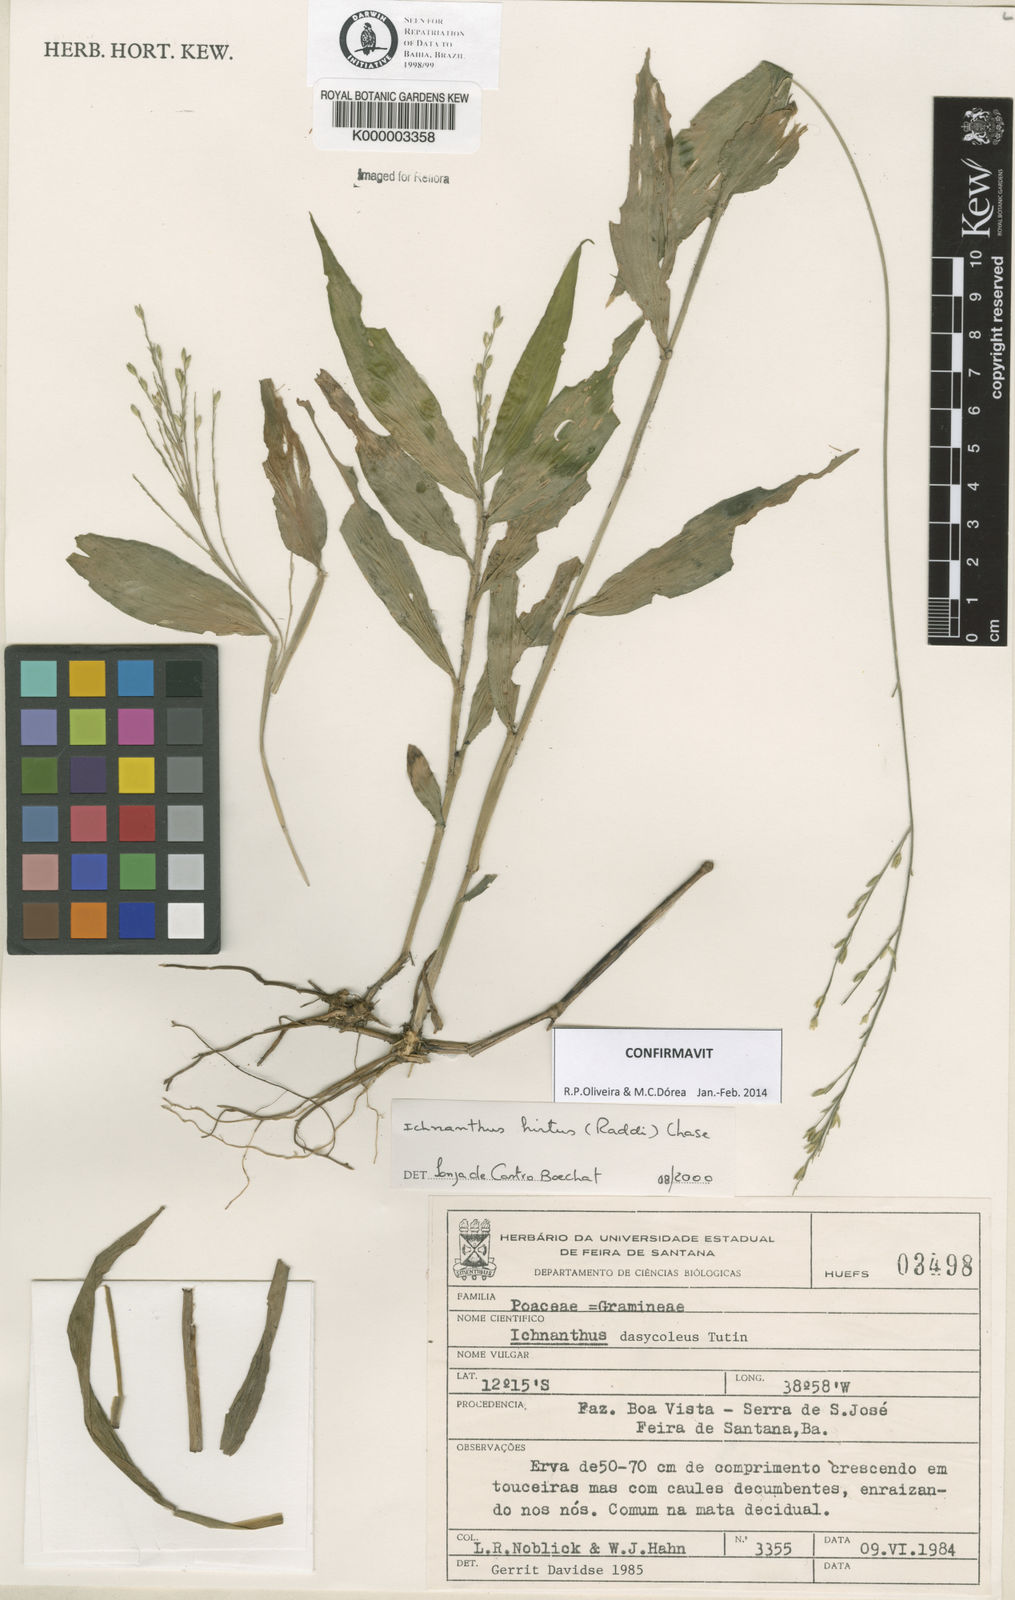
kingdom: Plantae
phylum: Tracheophyta
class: Liliopsida
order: Poales
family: Poaceae
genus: Ichnanthus
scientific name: Ichnanthus hirtus
